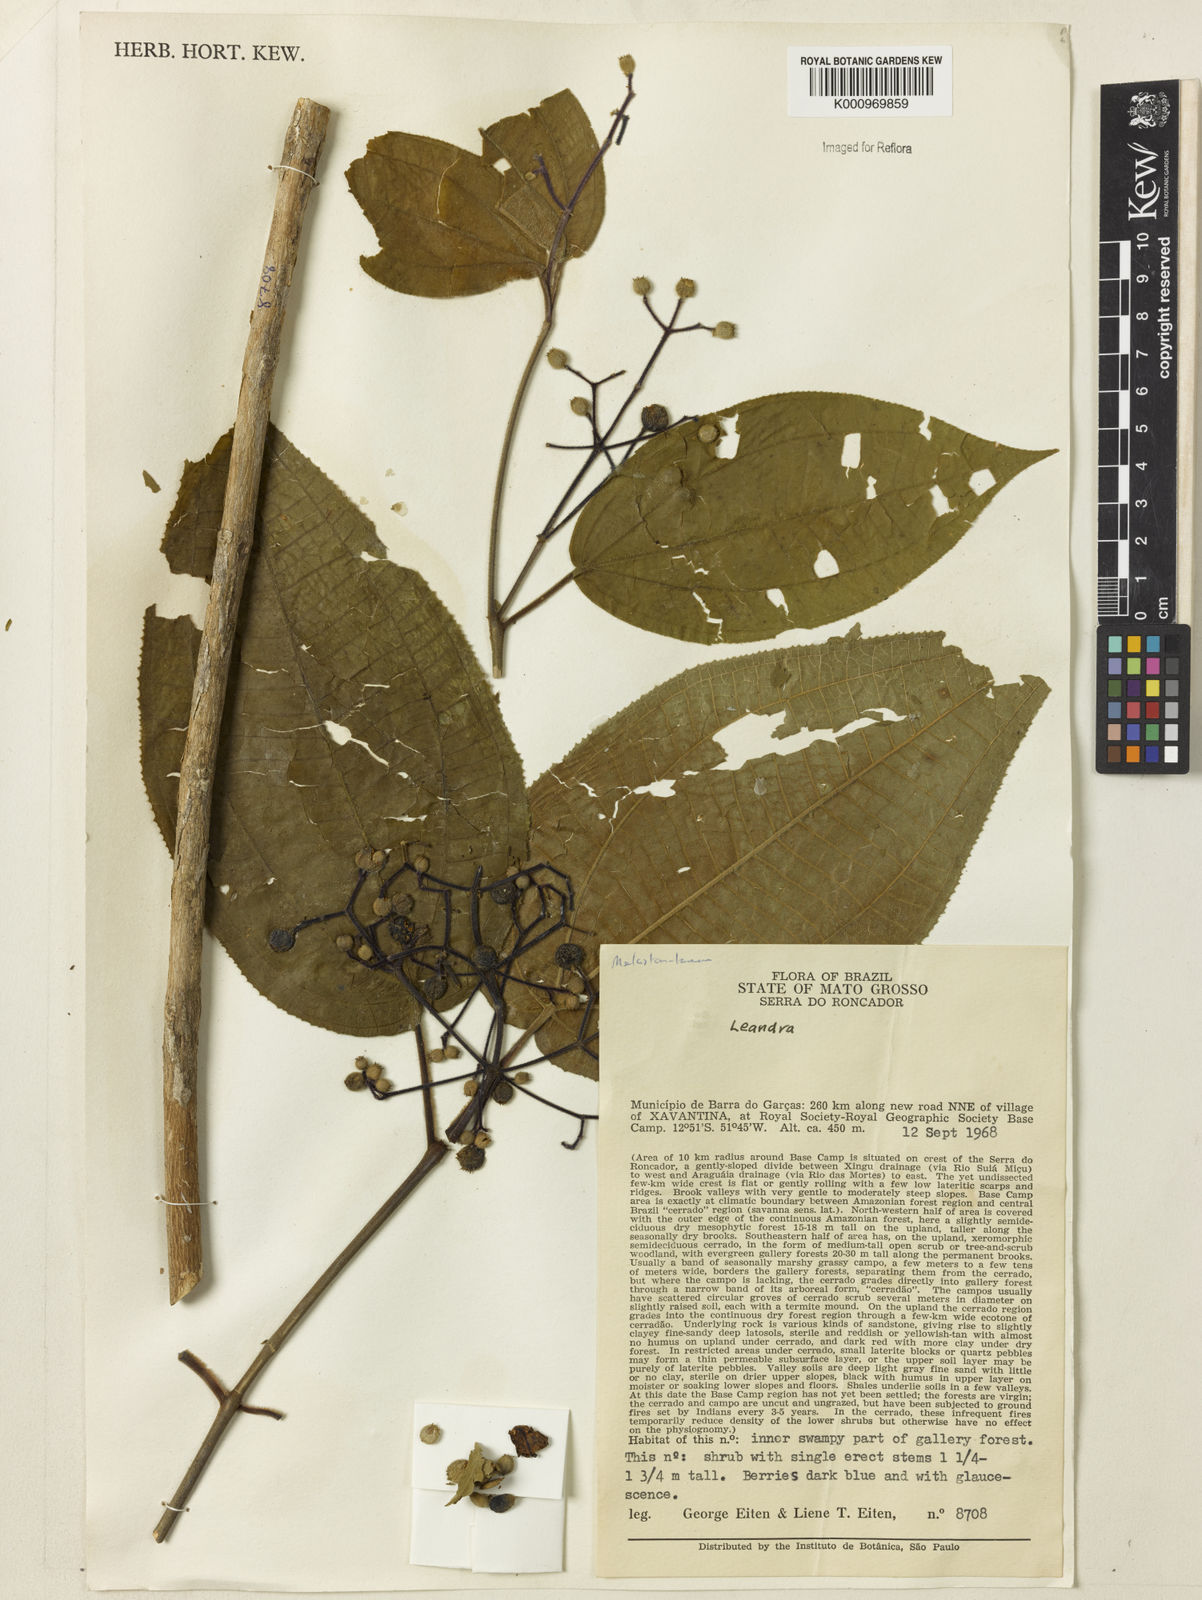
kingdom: Plantae
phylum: Tracheophyta
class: Magnoliopsida
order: Myrtales
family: Melastomataceae
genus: Miconia
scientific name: Miconia
